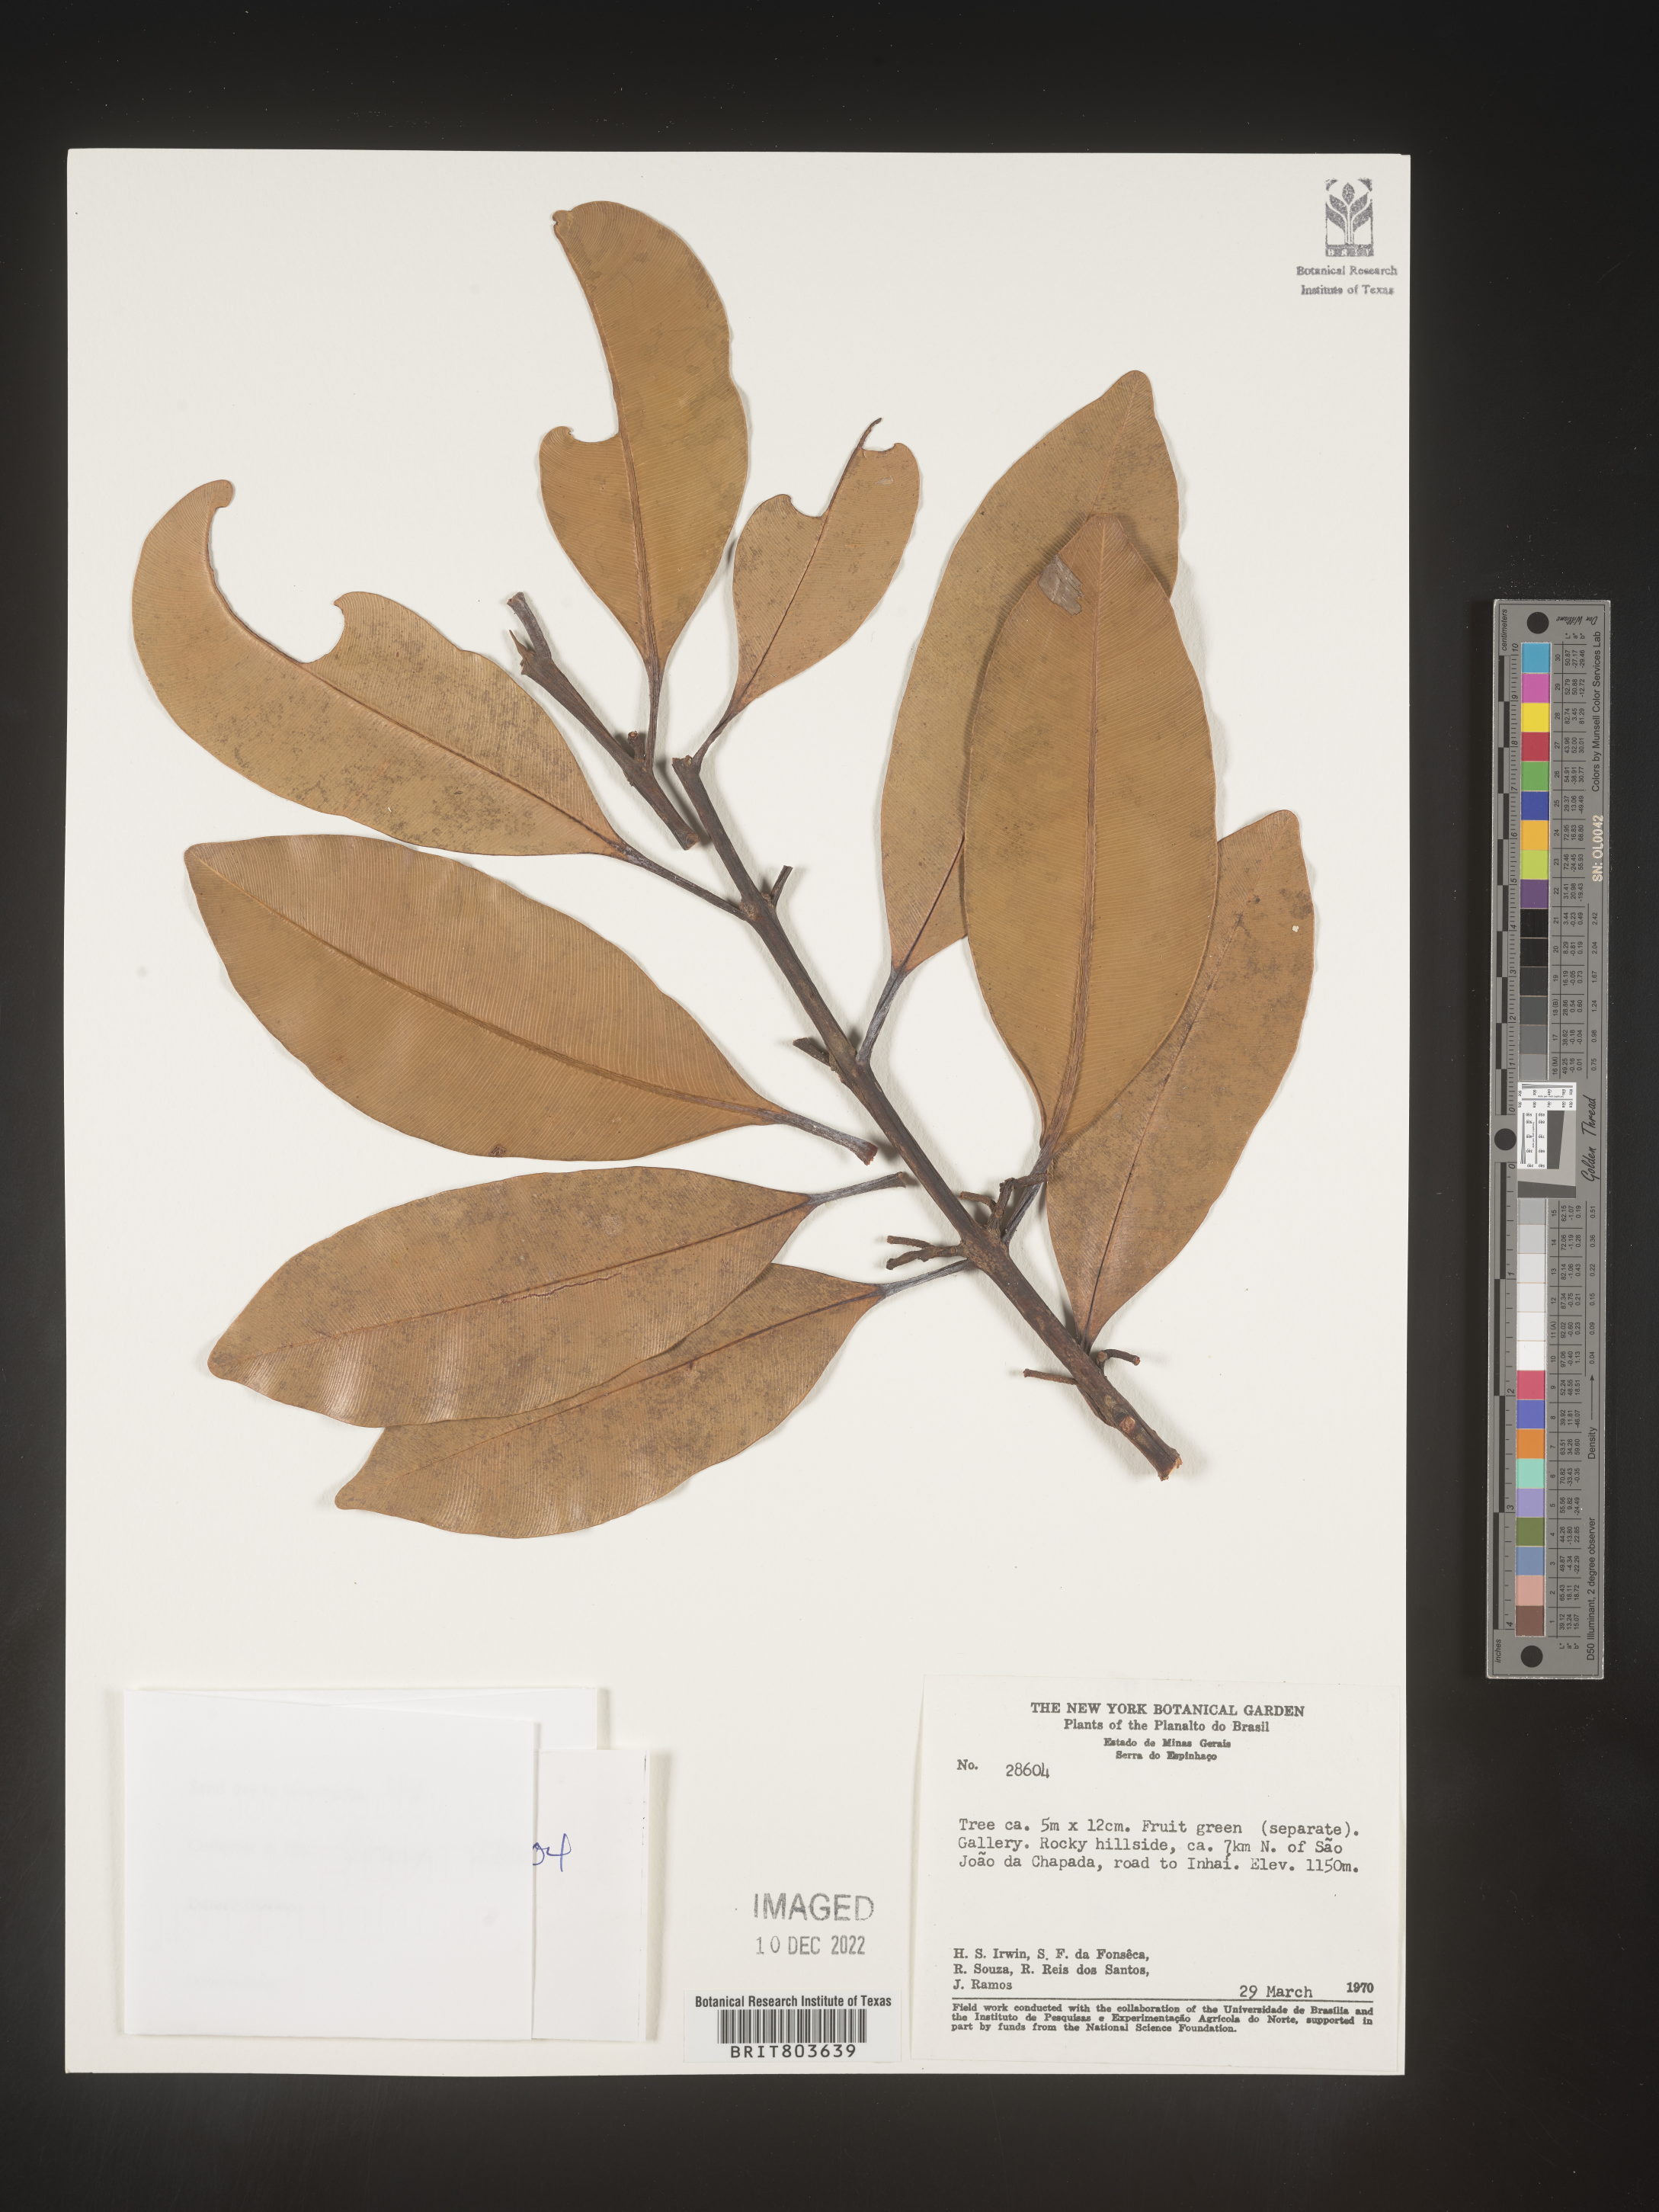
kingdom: Plantae
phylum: Tracheophyta
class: Magnoliopsida
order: Malpighiales
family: Clusiaceae
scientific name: Clusiaceae
